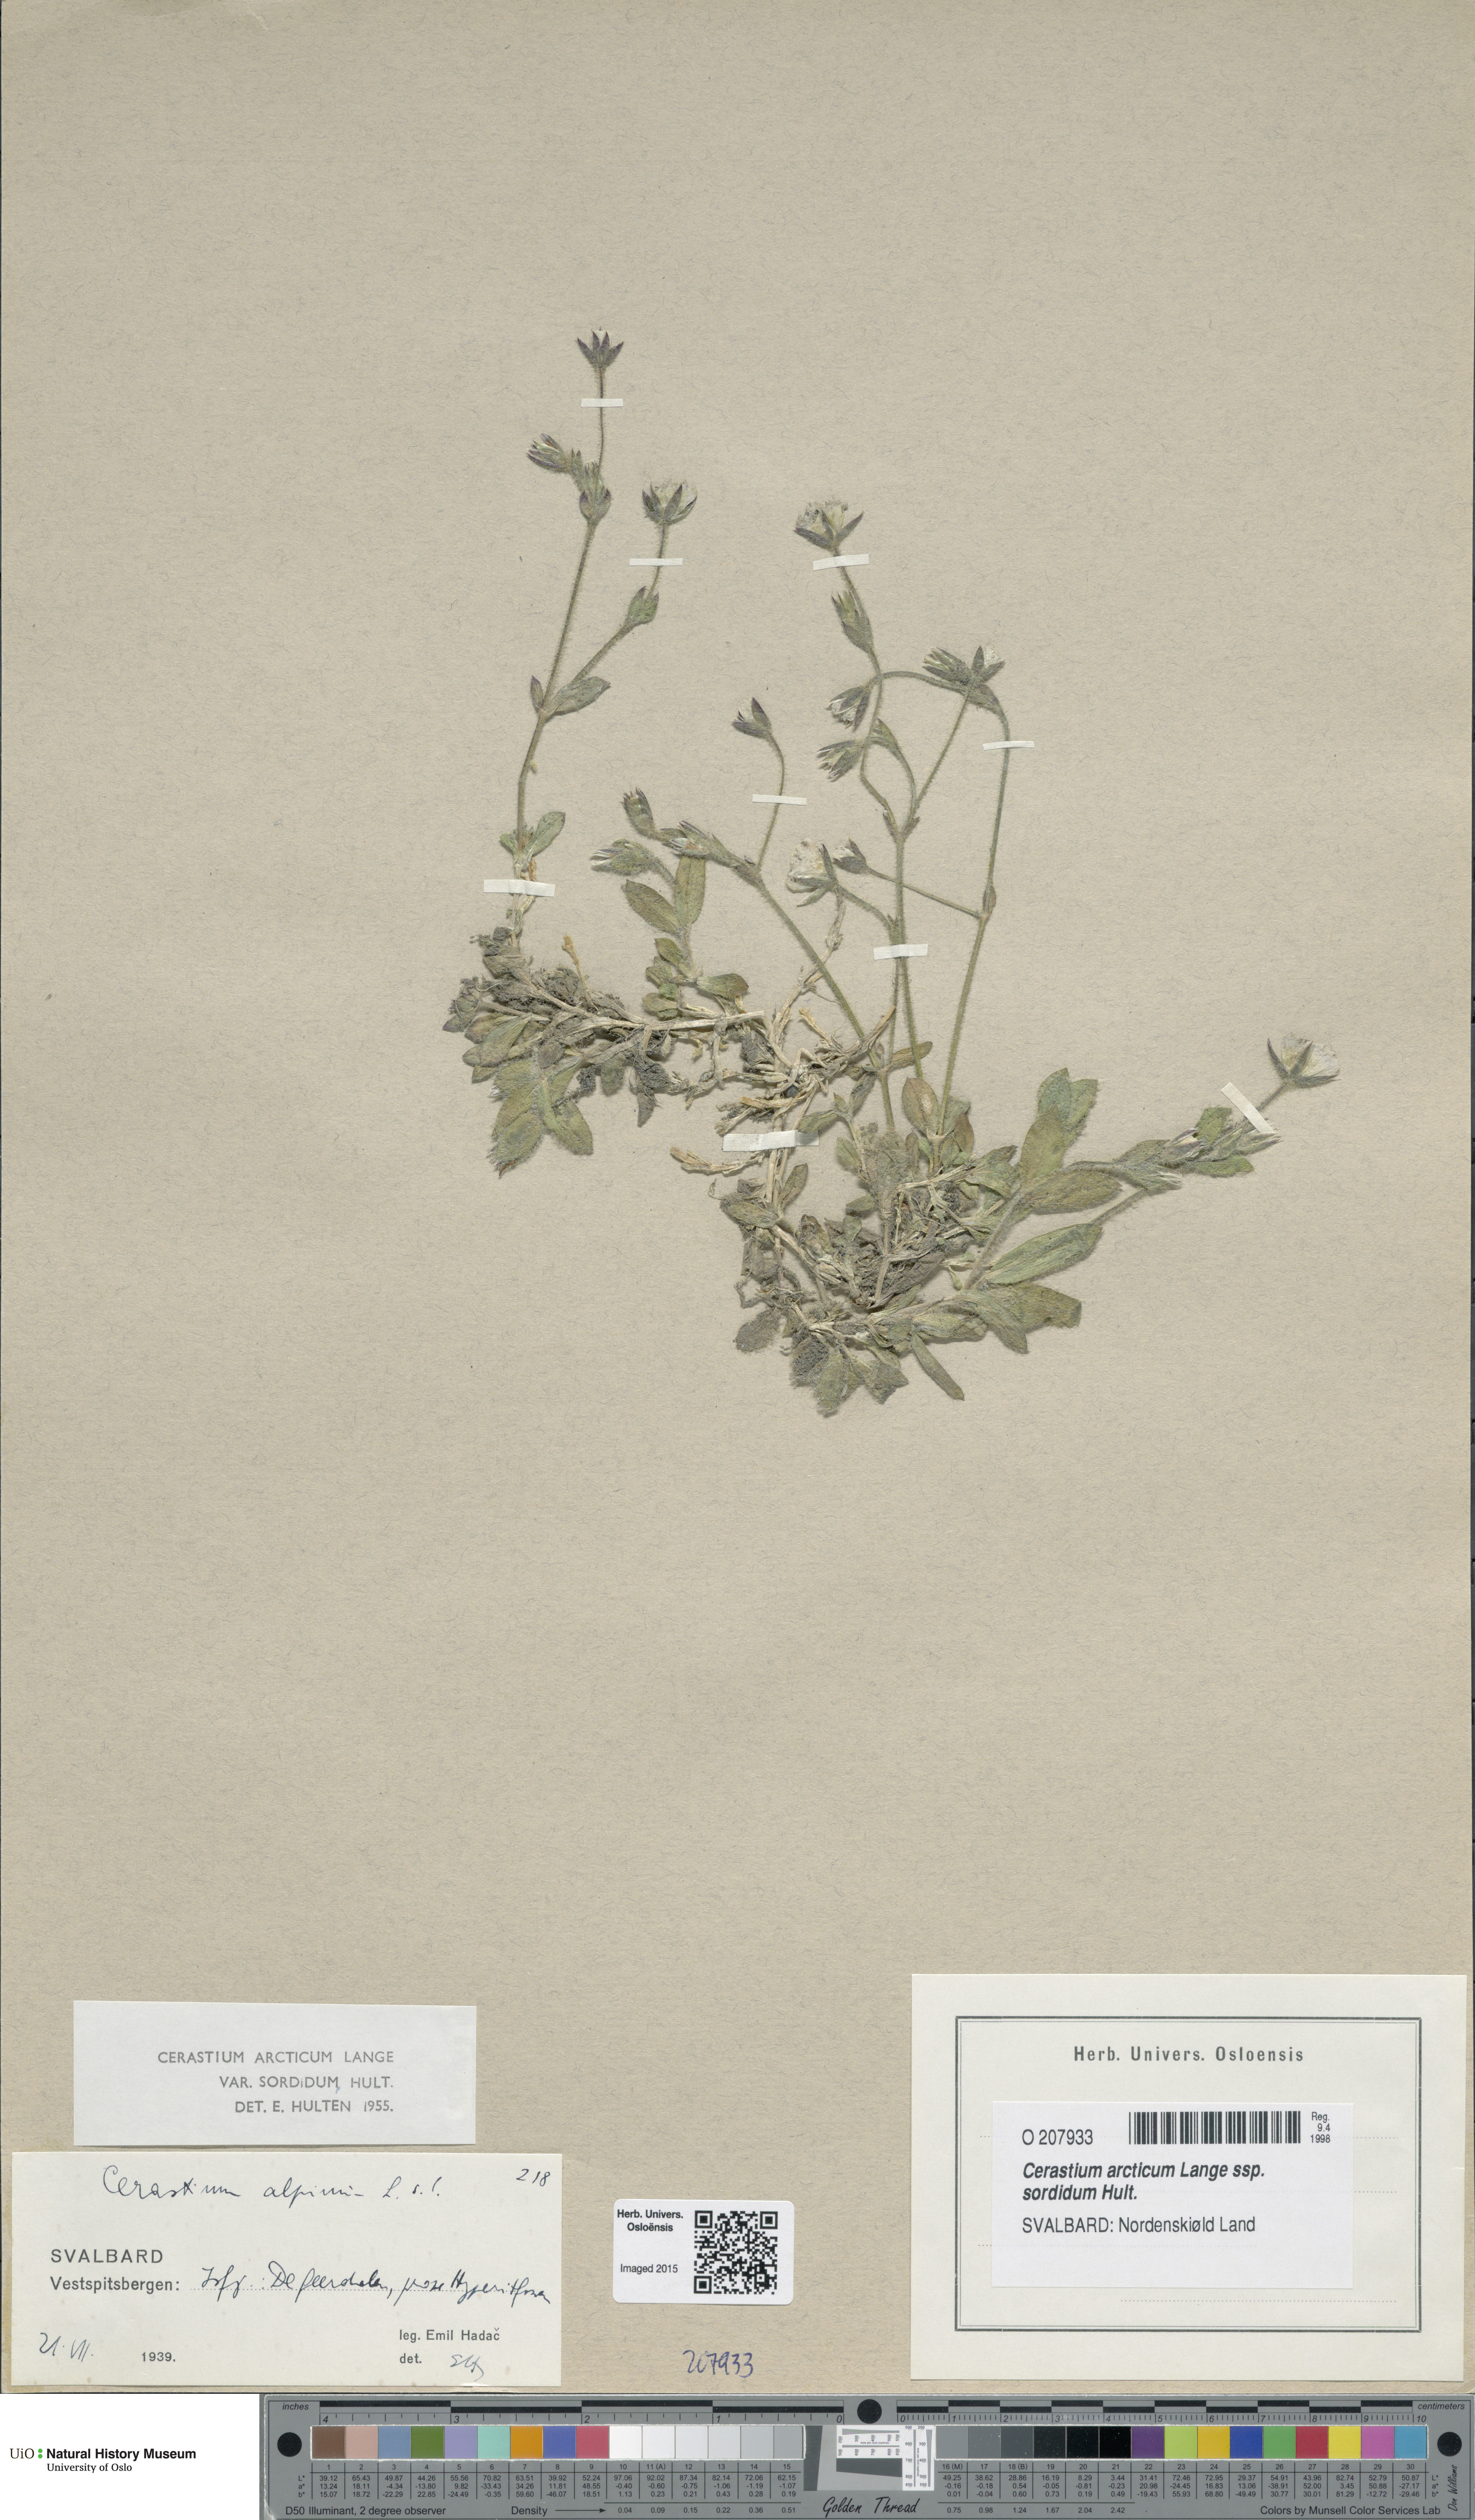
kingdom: Plantae
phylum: Tracheophyta
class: Magnoliopsida
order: Caryophyllales
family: Caryophyllaceae
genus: Cerastium
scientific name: Cerastium sordidum
